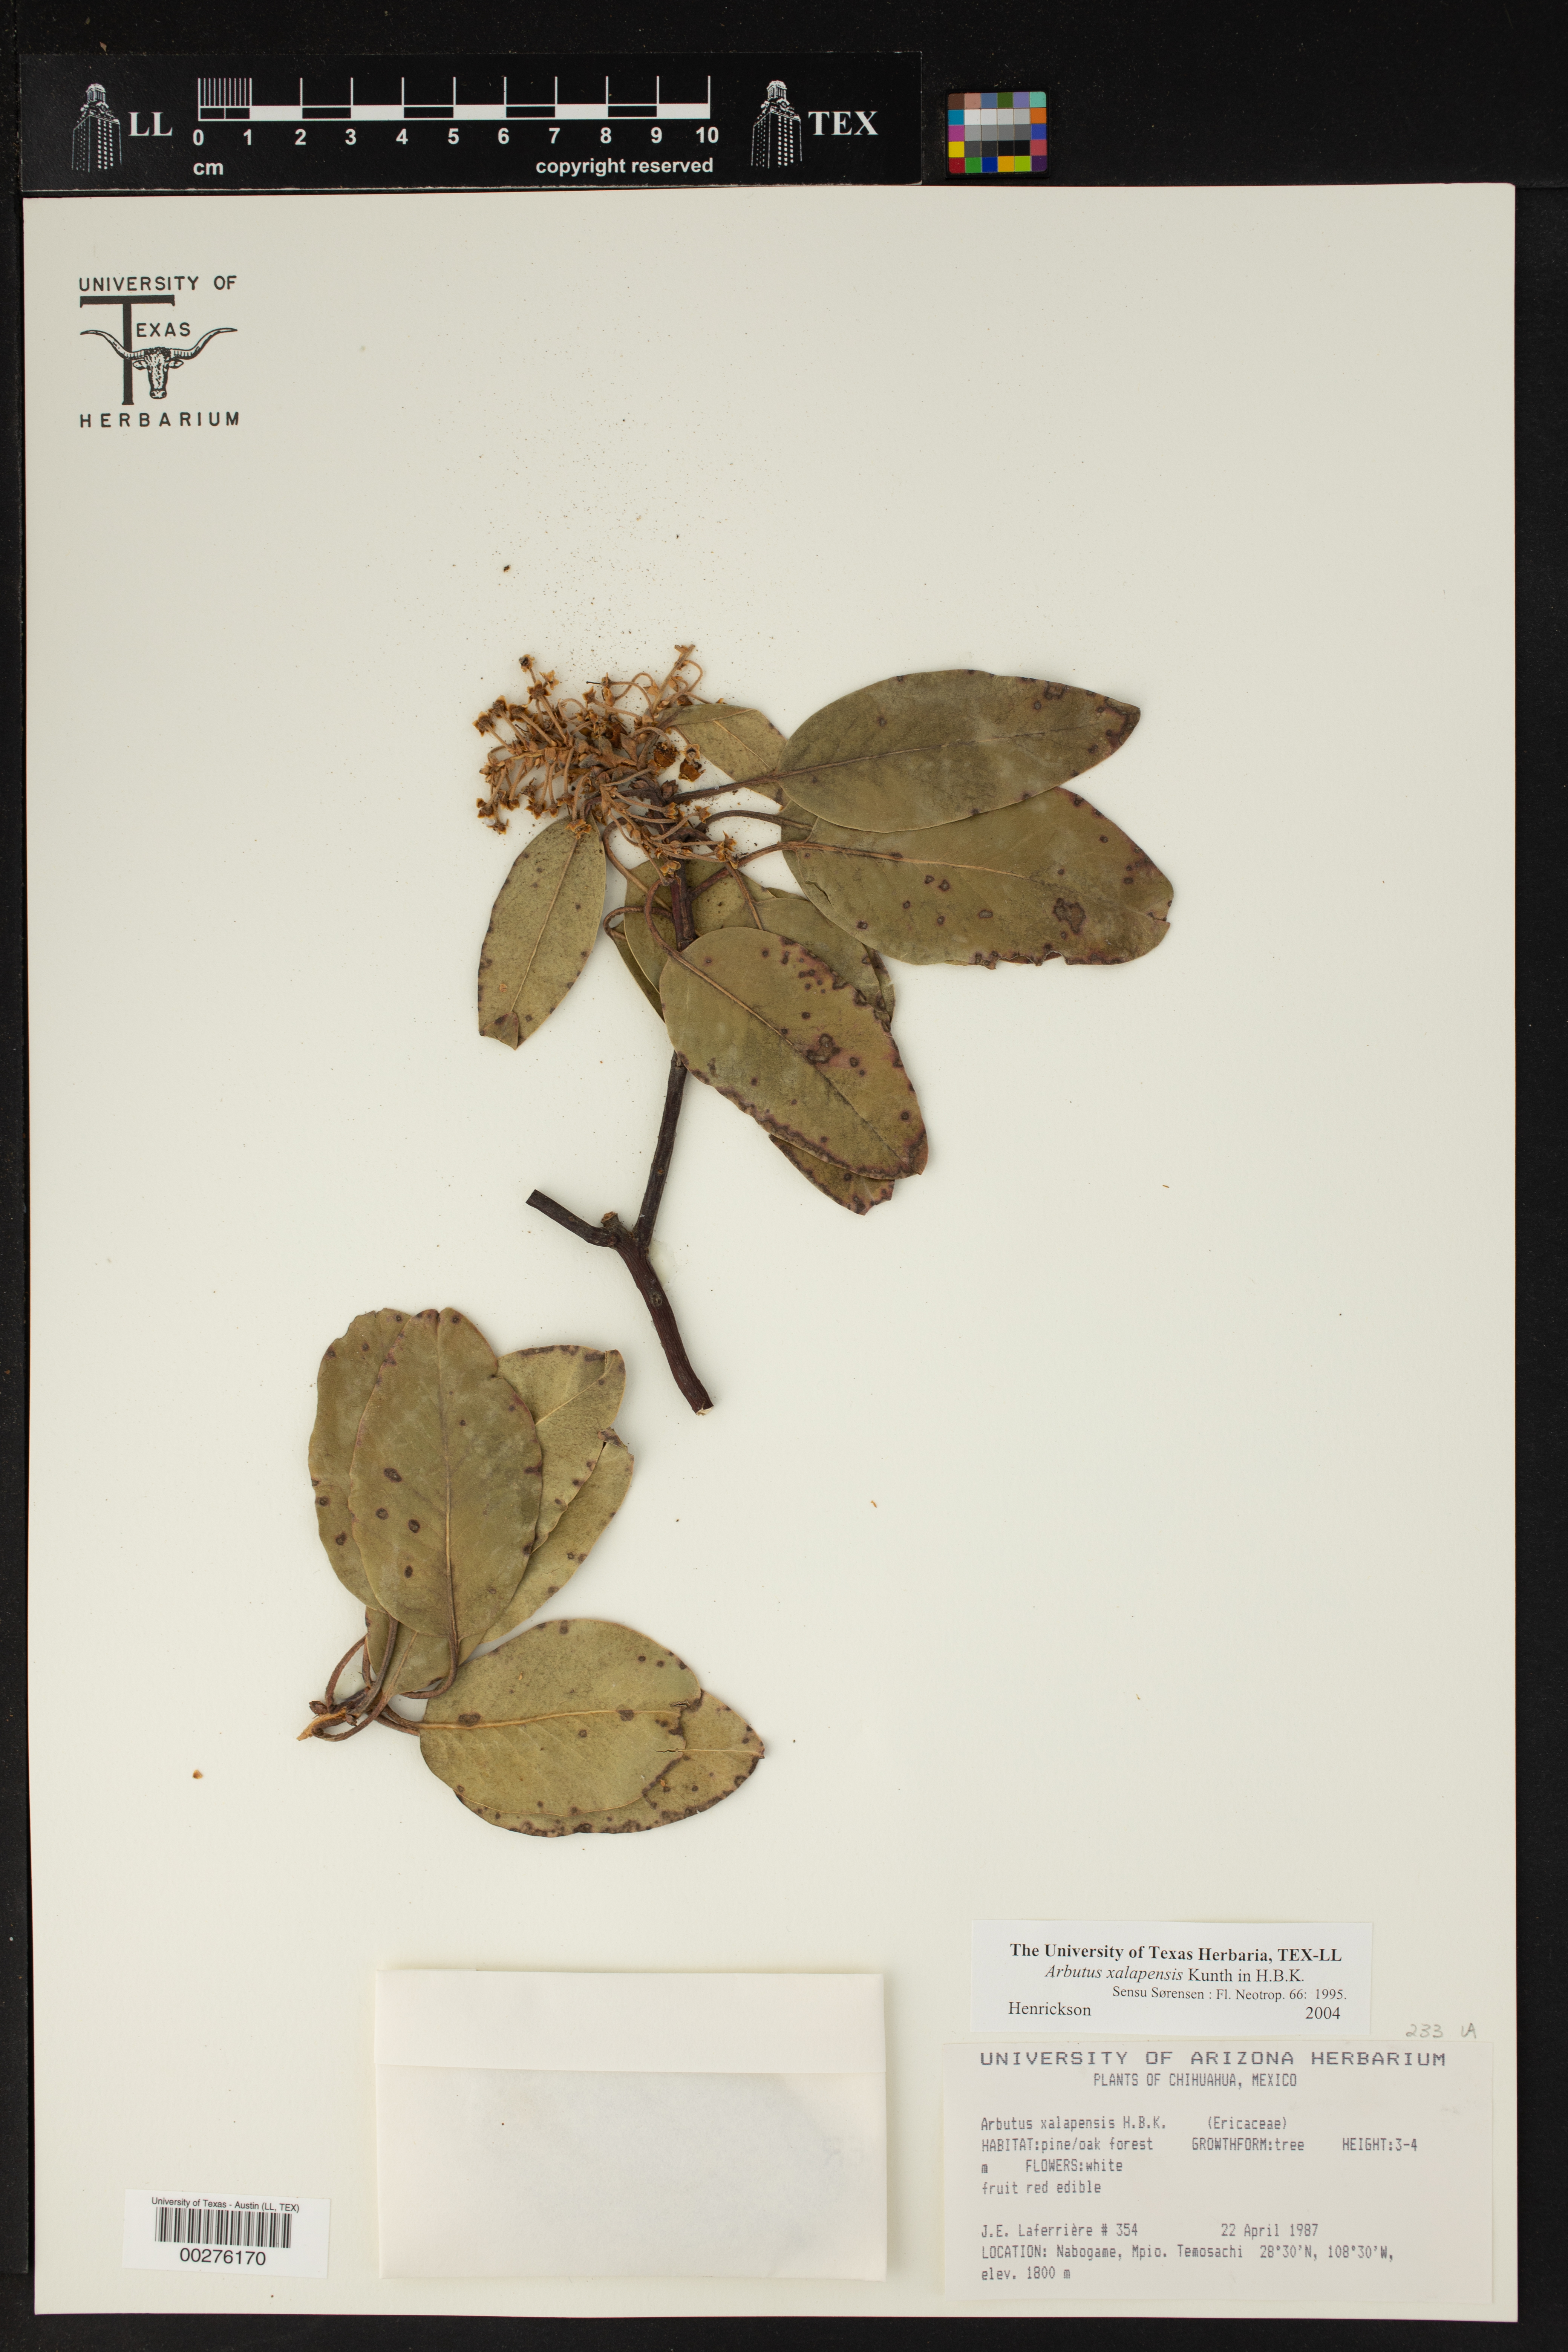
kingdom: Plantae
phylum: Tracheophyta
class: Magnoliopsida
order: Ericales
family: Ericaceae
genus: Arbutus
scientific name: Arbutus xalapensis
